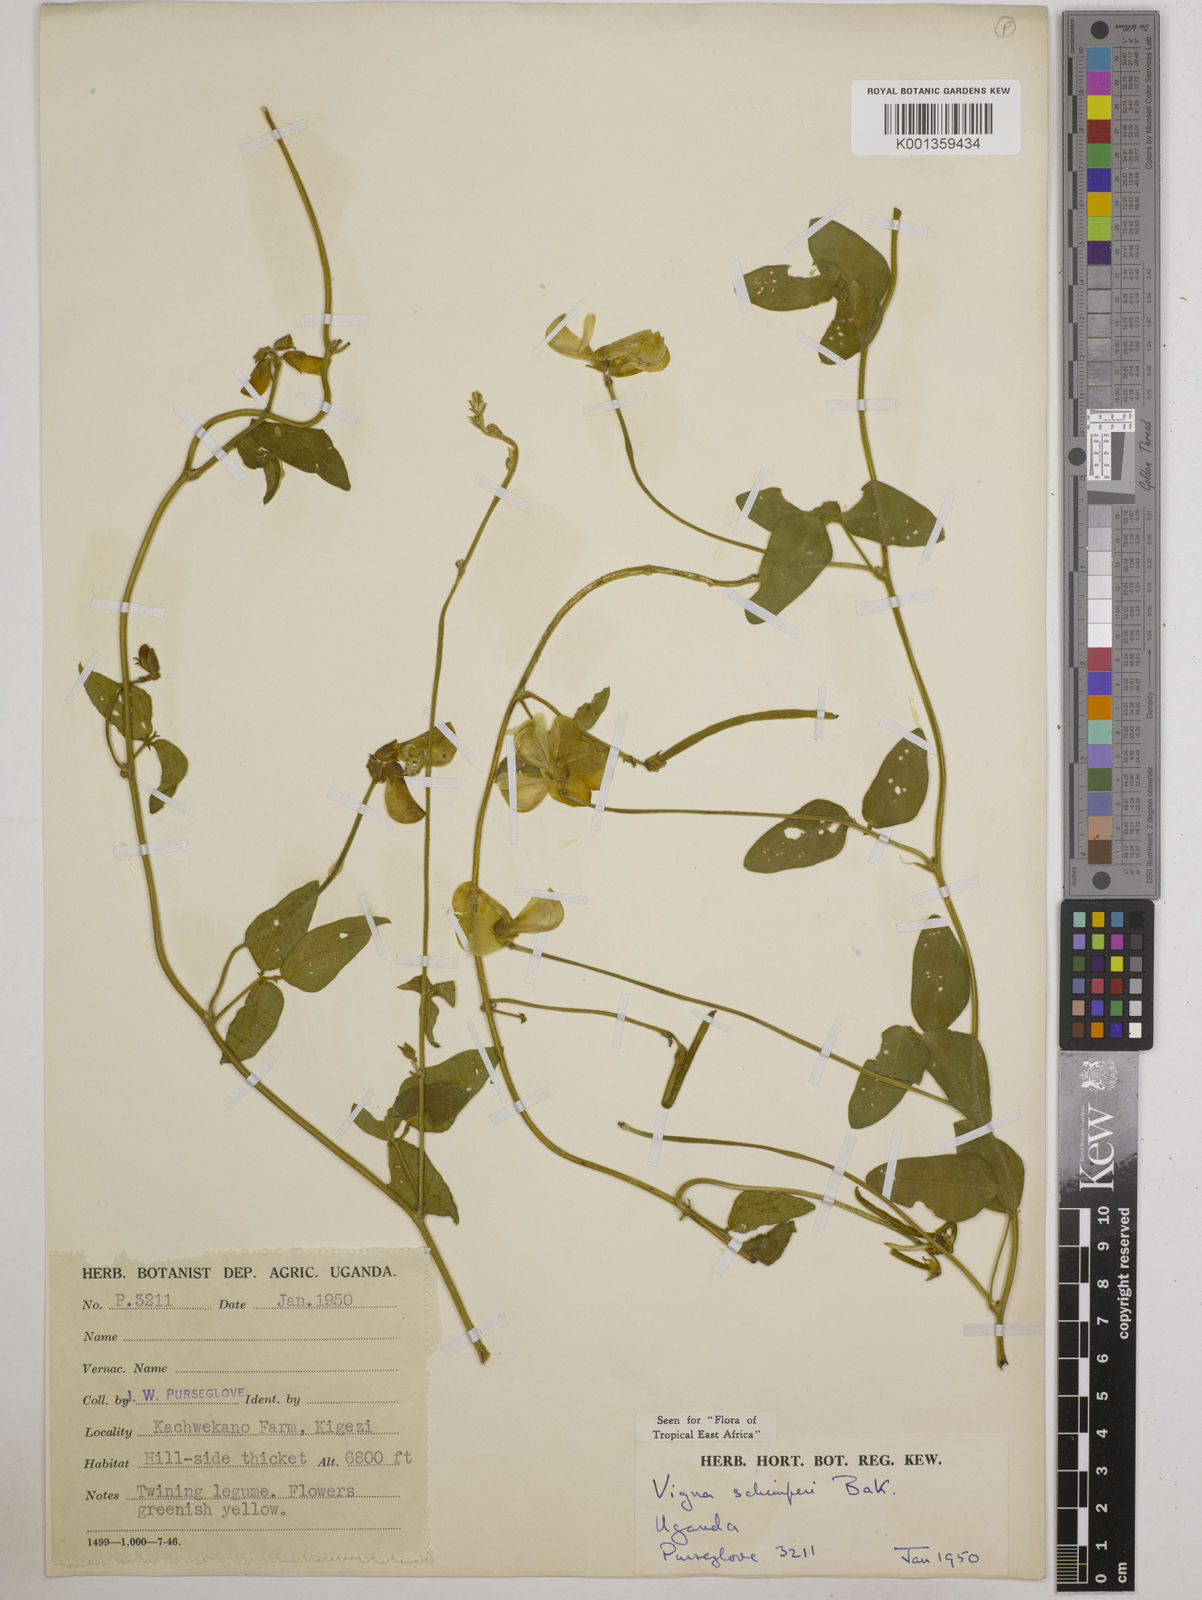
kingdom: Plantae
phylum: Tracheophyta
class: Magnoliopsida
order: Fabales
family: Fabaceae
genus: Vigna
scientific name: Vigna schimperi
